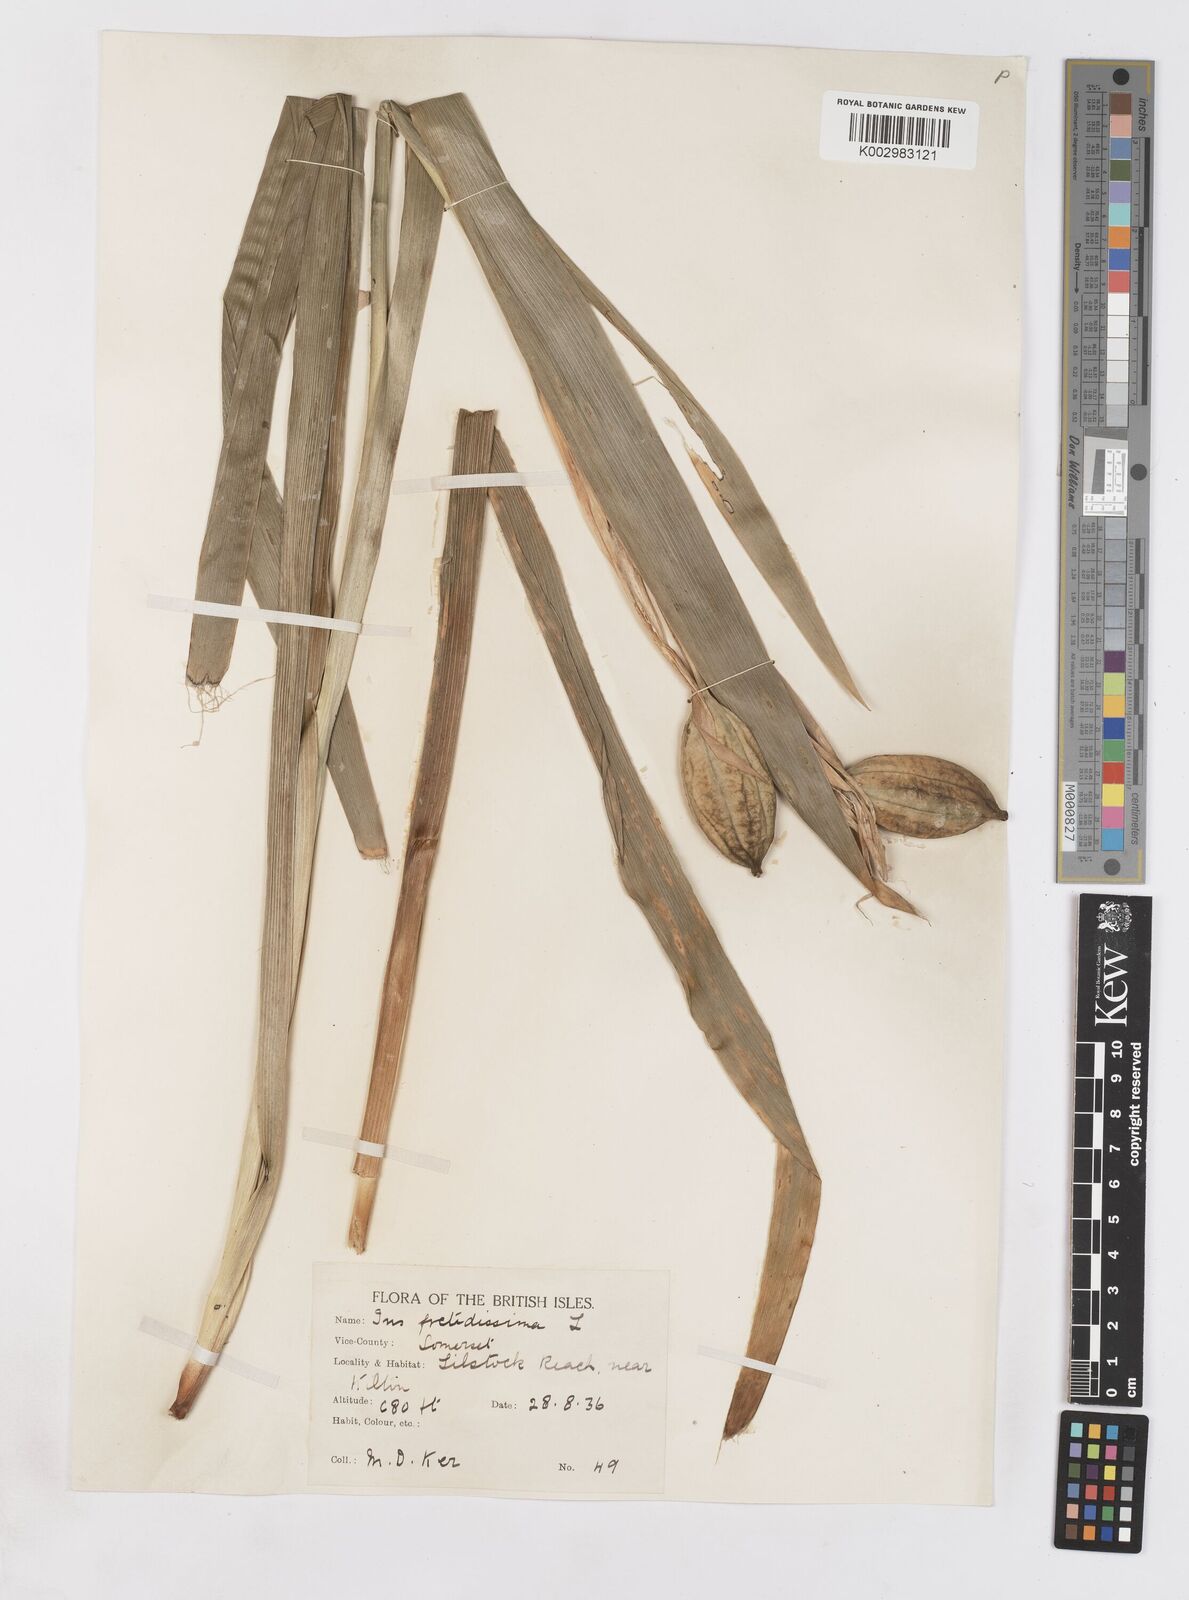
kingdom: Plantae
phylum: Tracheophyta
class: Liliopsida
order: Asparagales
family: Iridaceae
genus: Iris
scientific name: Iris foetidissima
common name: Stinking iris
